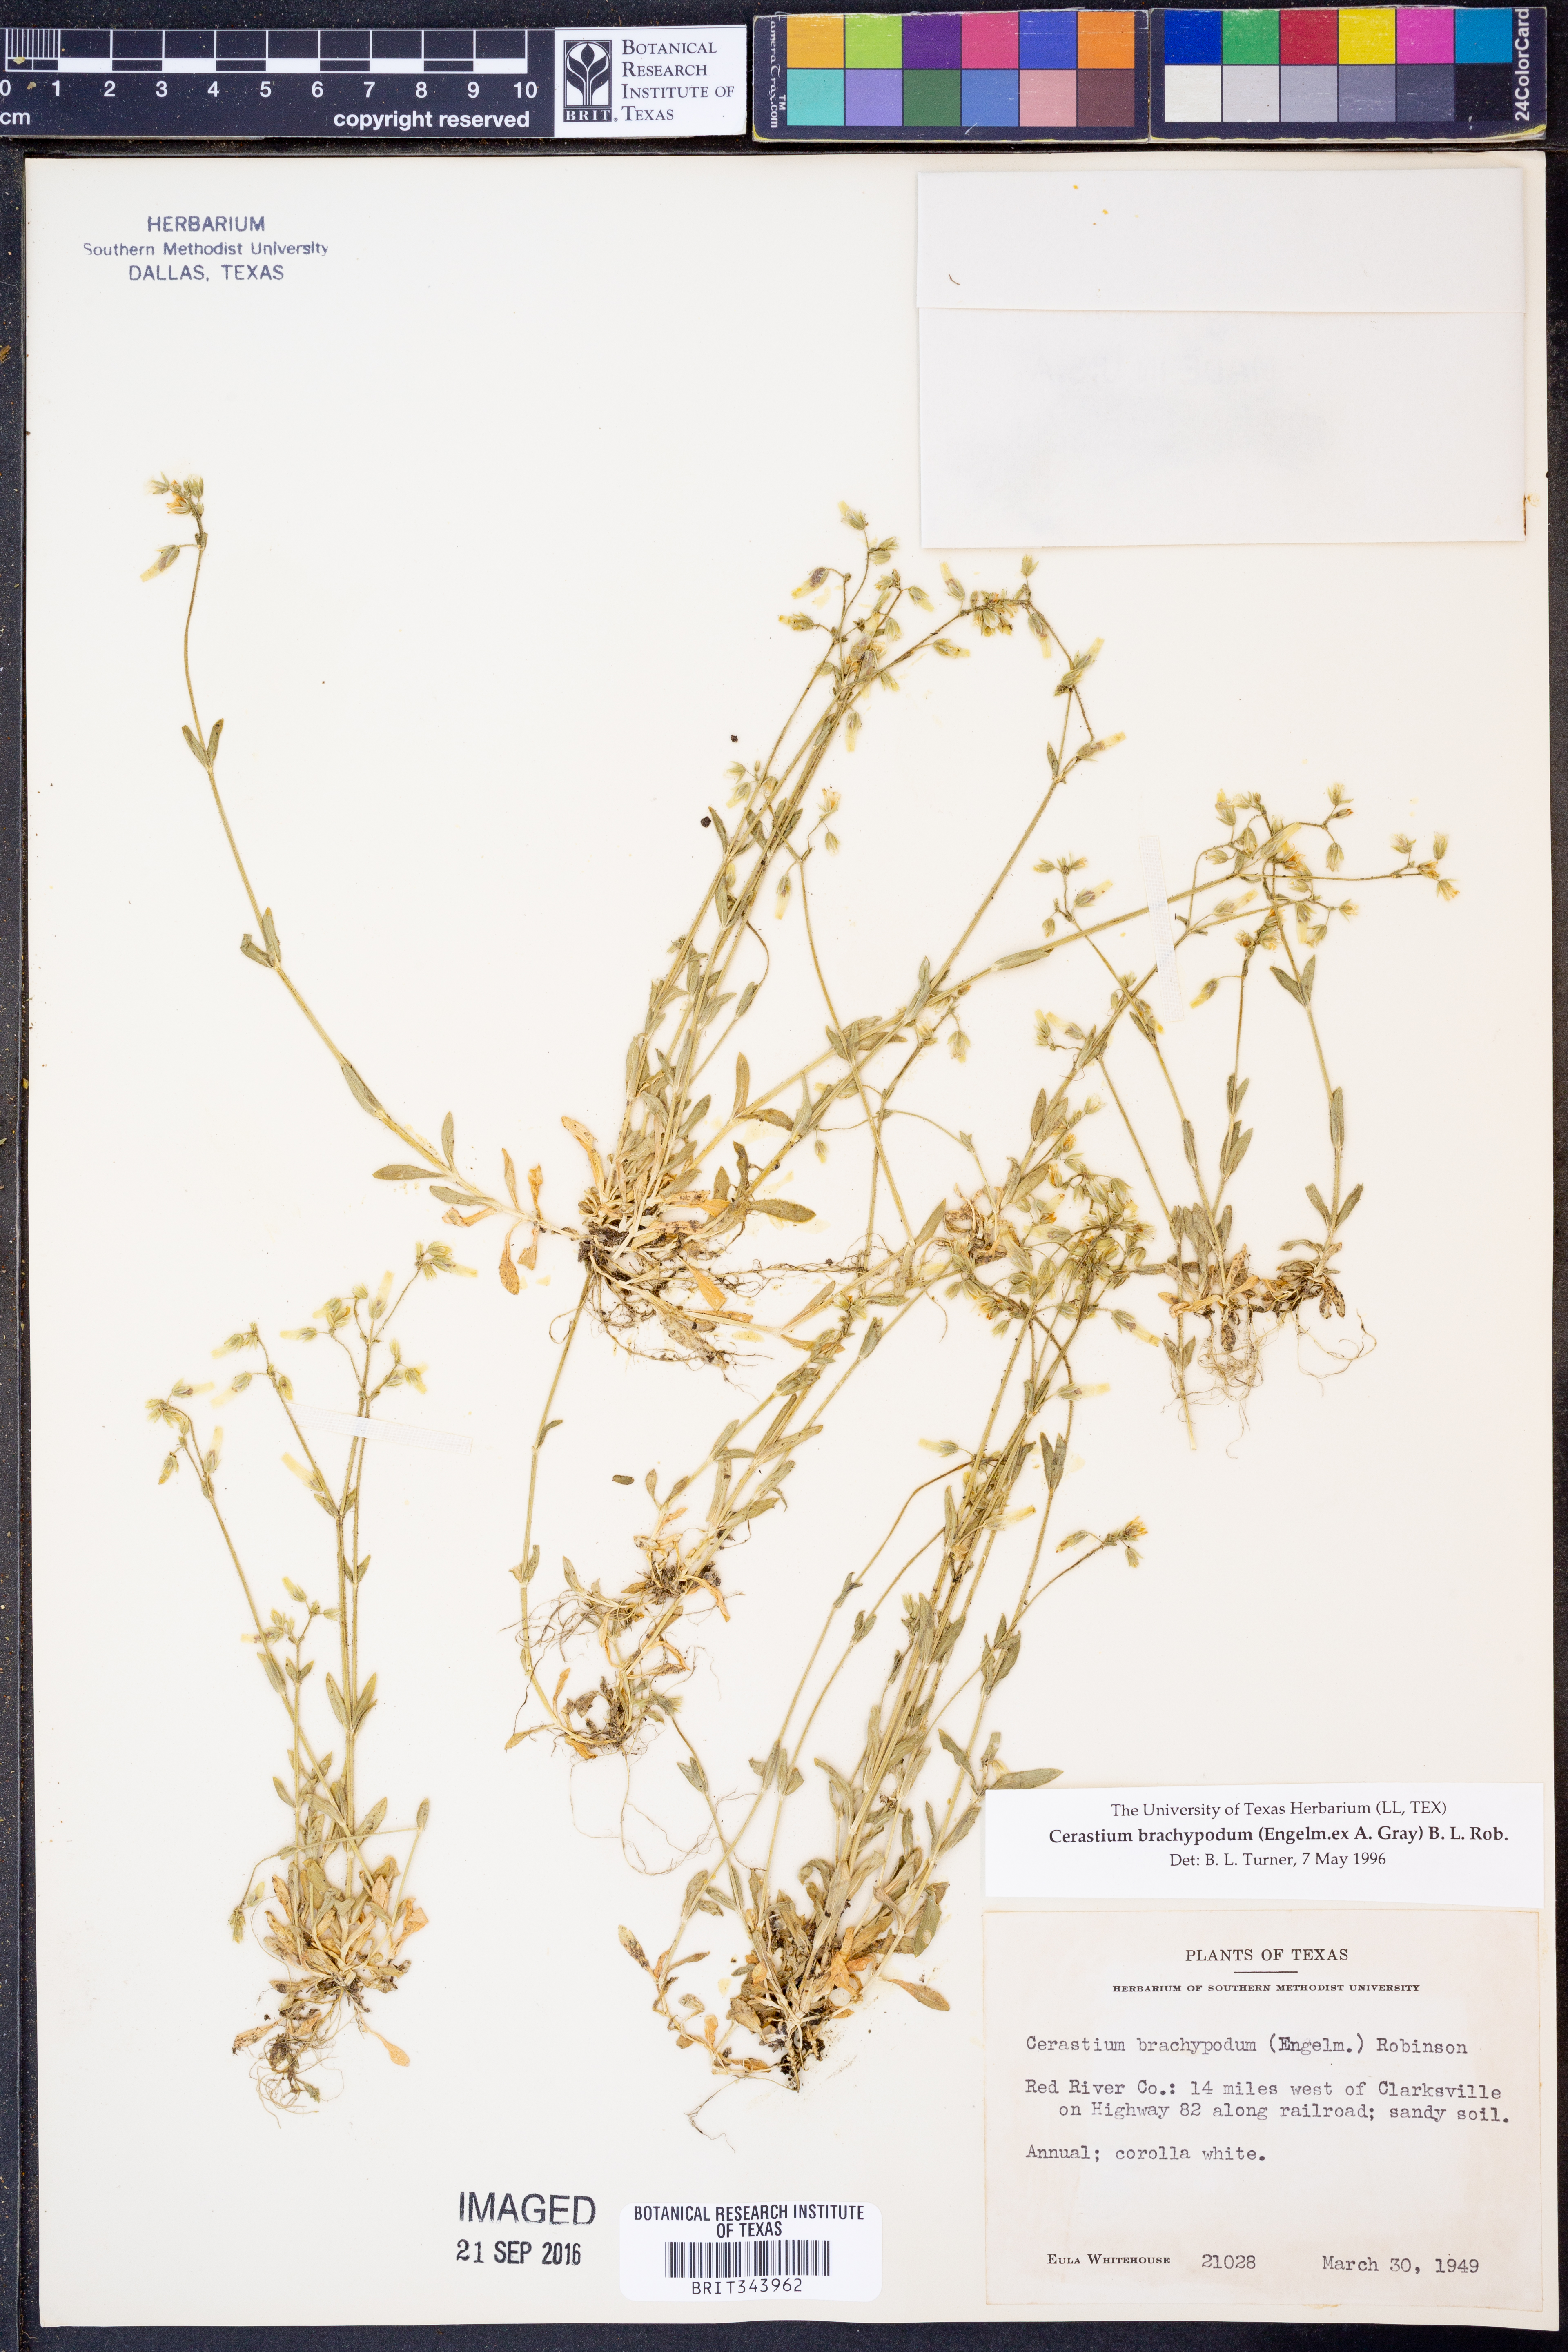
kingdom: Plantae
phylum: Tracheophyta
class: Magnoliopsida
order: Caryophyllales
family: Caryophyllaceae
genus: Cerastium
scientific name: Cerastium brachypodum
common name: Short-pedicelled nodding chickweed
